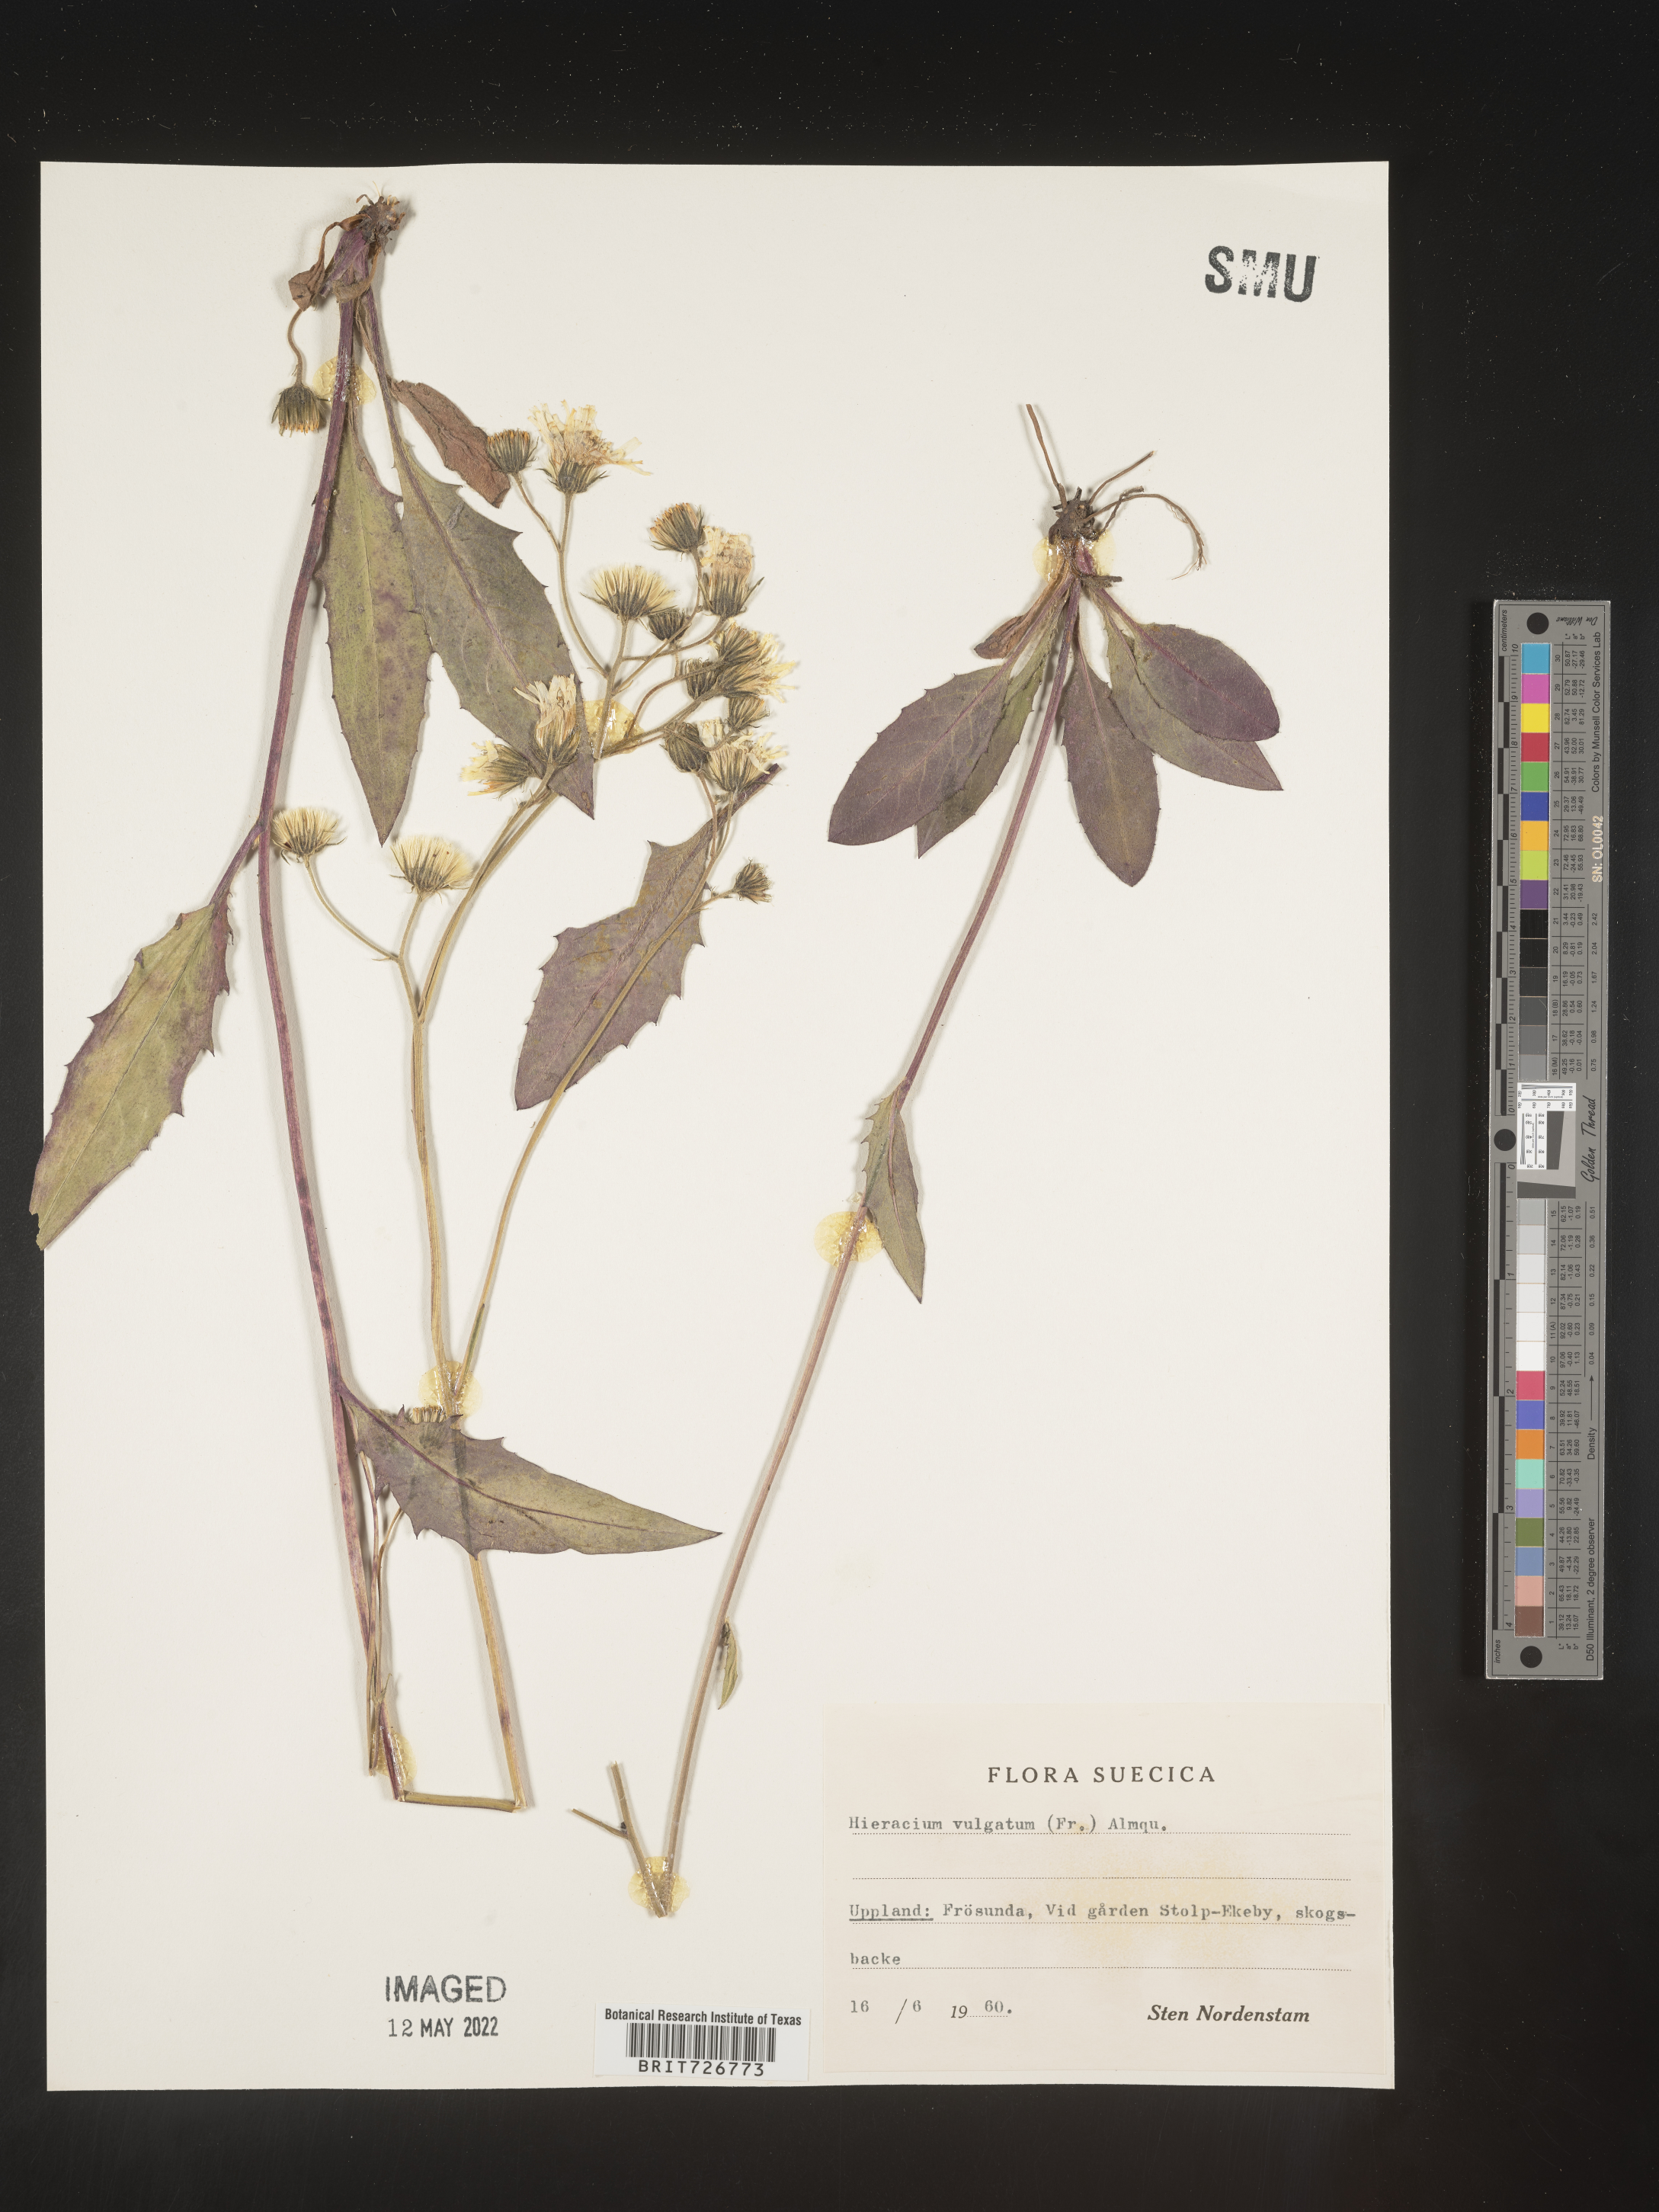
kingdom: Plantae
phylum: Tracheophyta
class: Magnoliopsida
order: Asterales
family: Asteraceae
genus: Hieracium
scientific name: Hieracium
